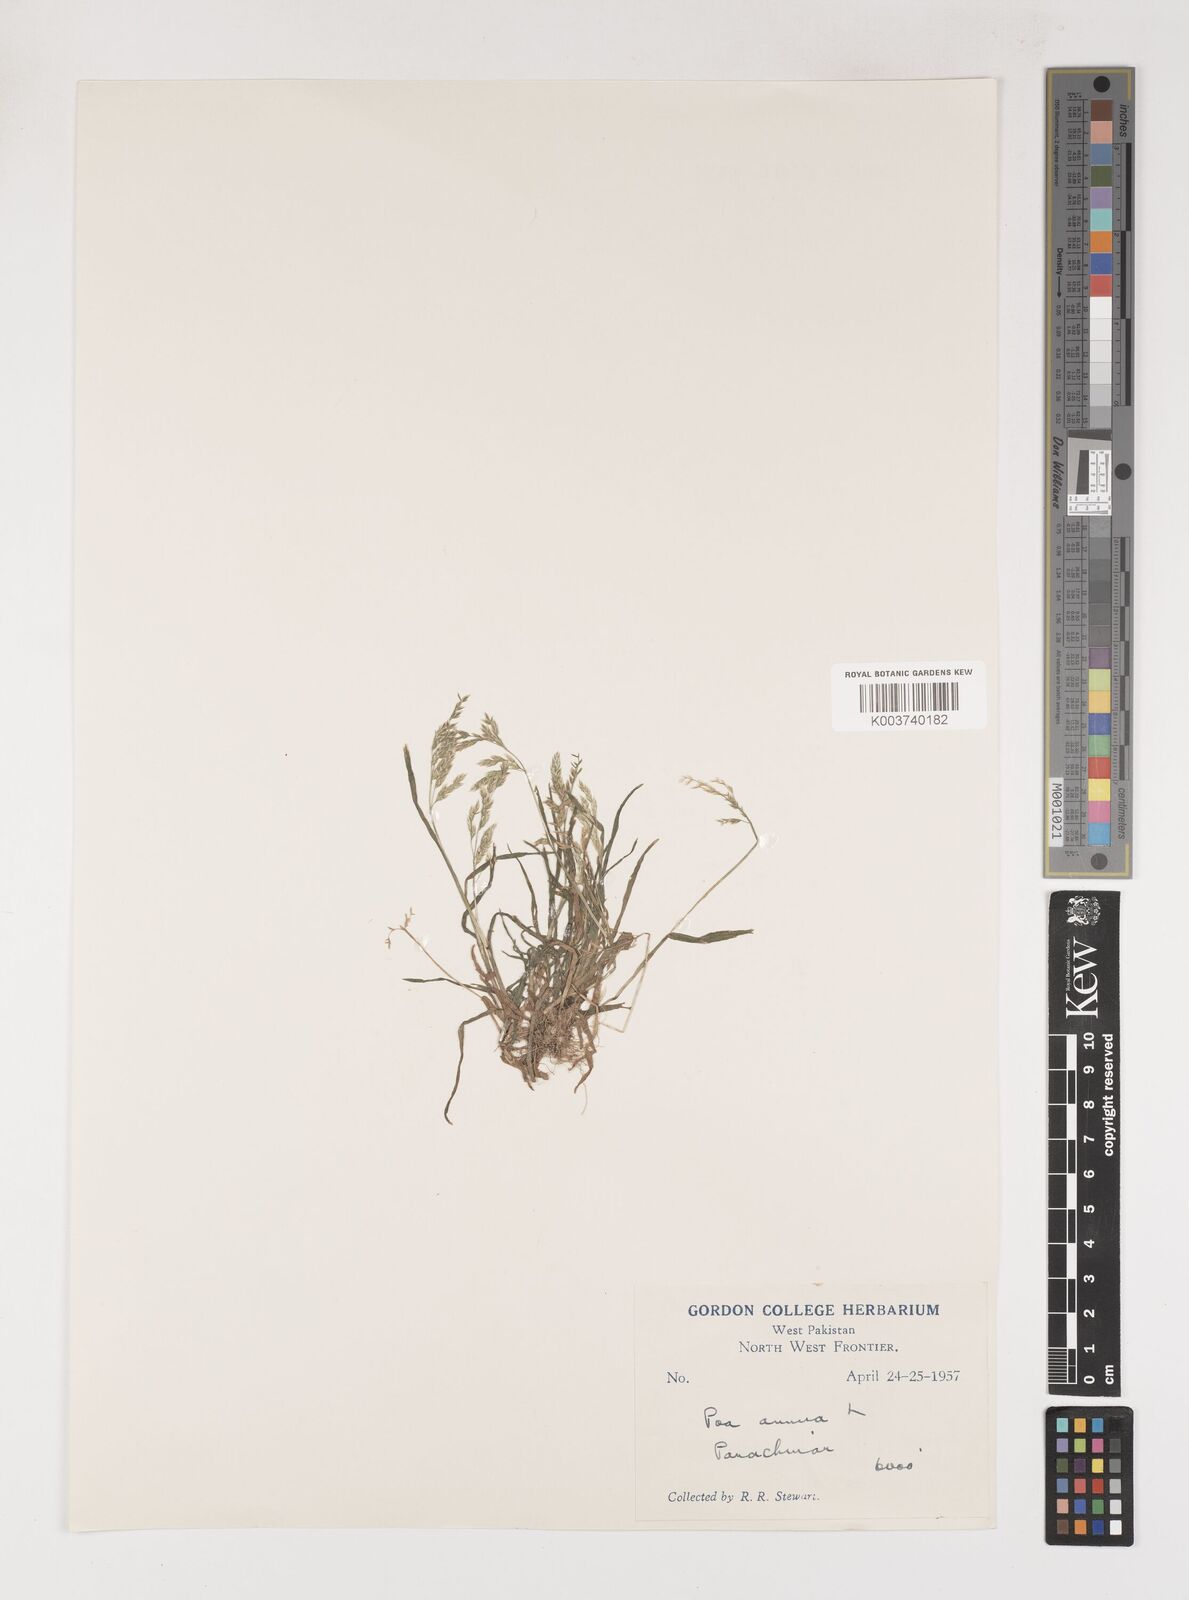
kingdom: Plantae
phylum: Tracheophyta
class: Liliopsida
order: Poales
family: Poaceae
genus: Poa
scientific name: Poa annua
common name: Annual bluegrass
